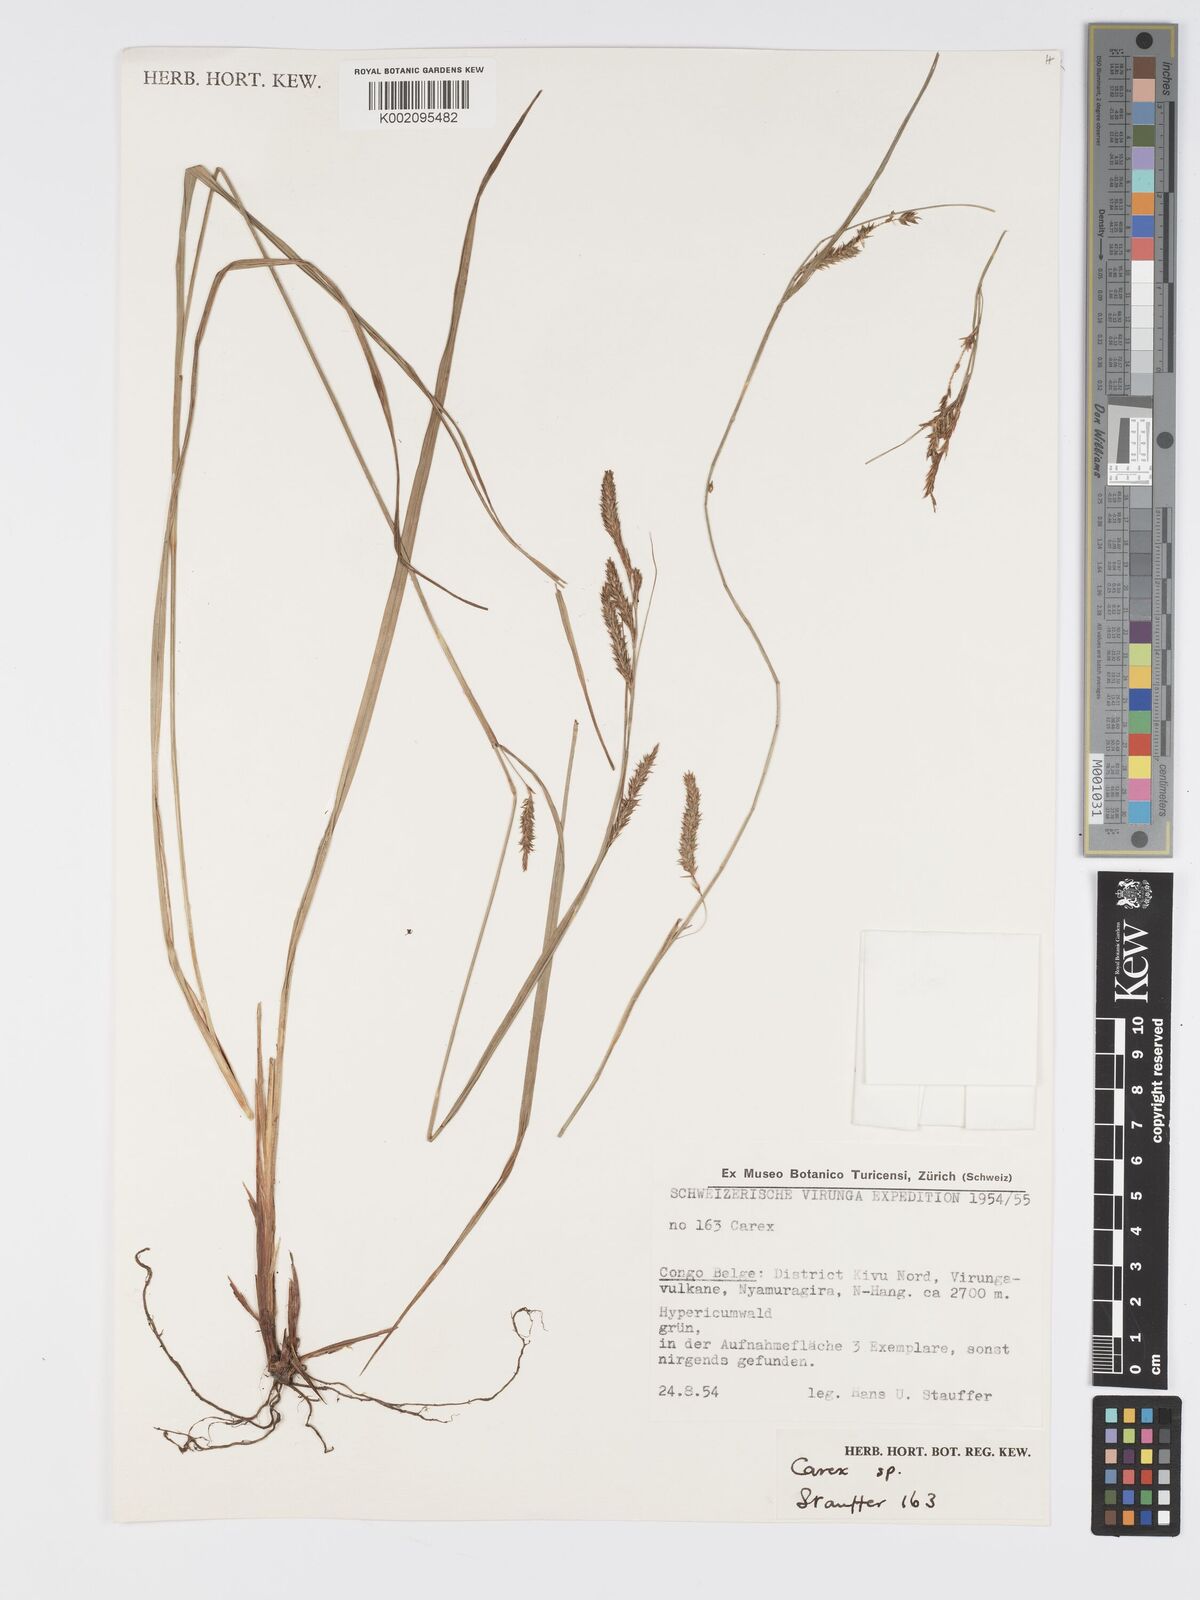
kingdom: Plantae
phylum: Tracheophyta
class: Liliopsida
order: Poales
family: Cyperaceae
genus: Carex
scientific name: Carex
